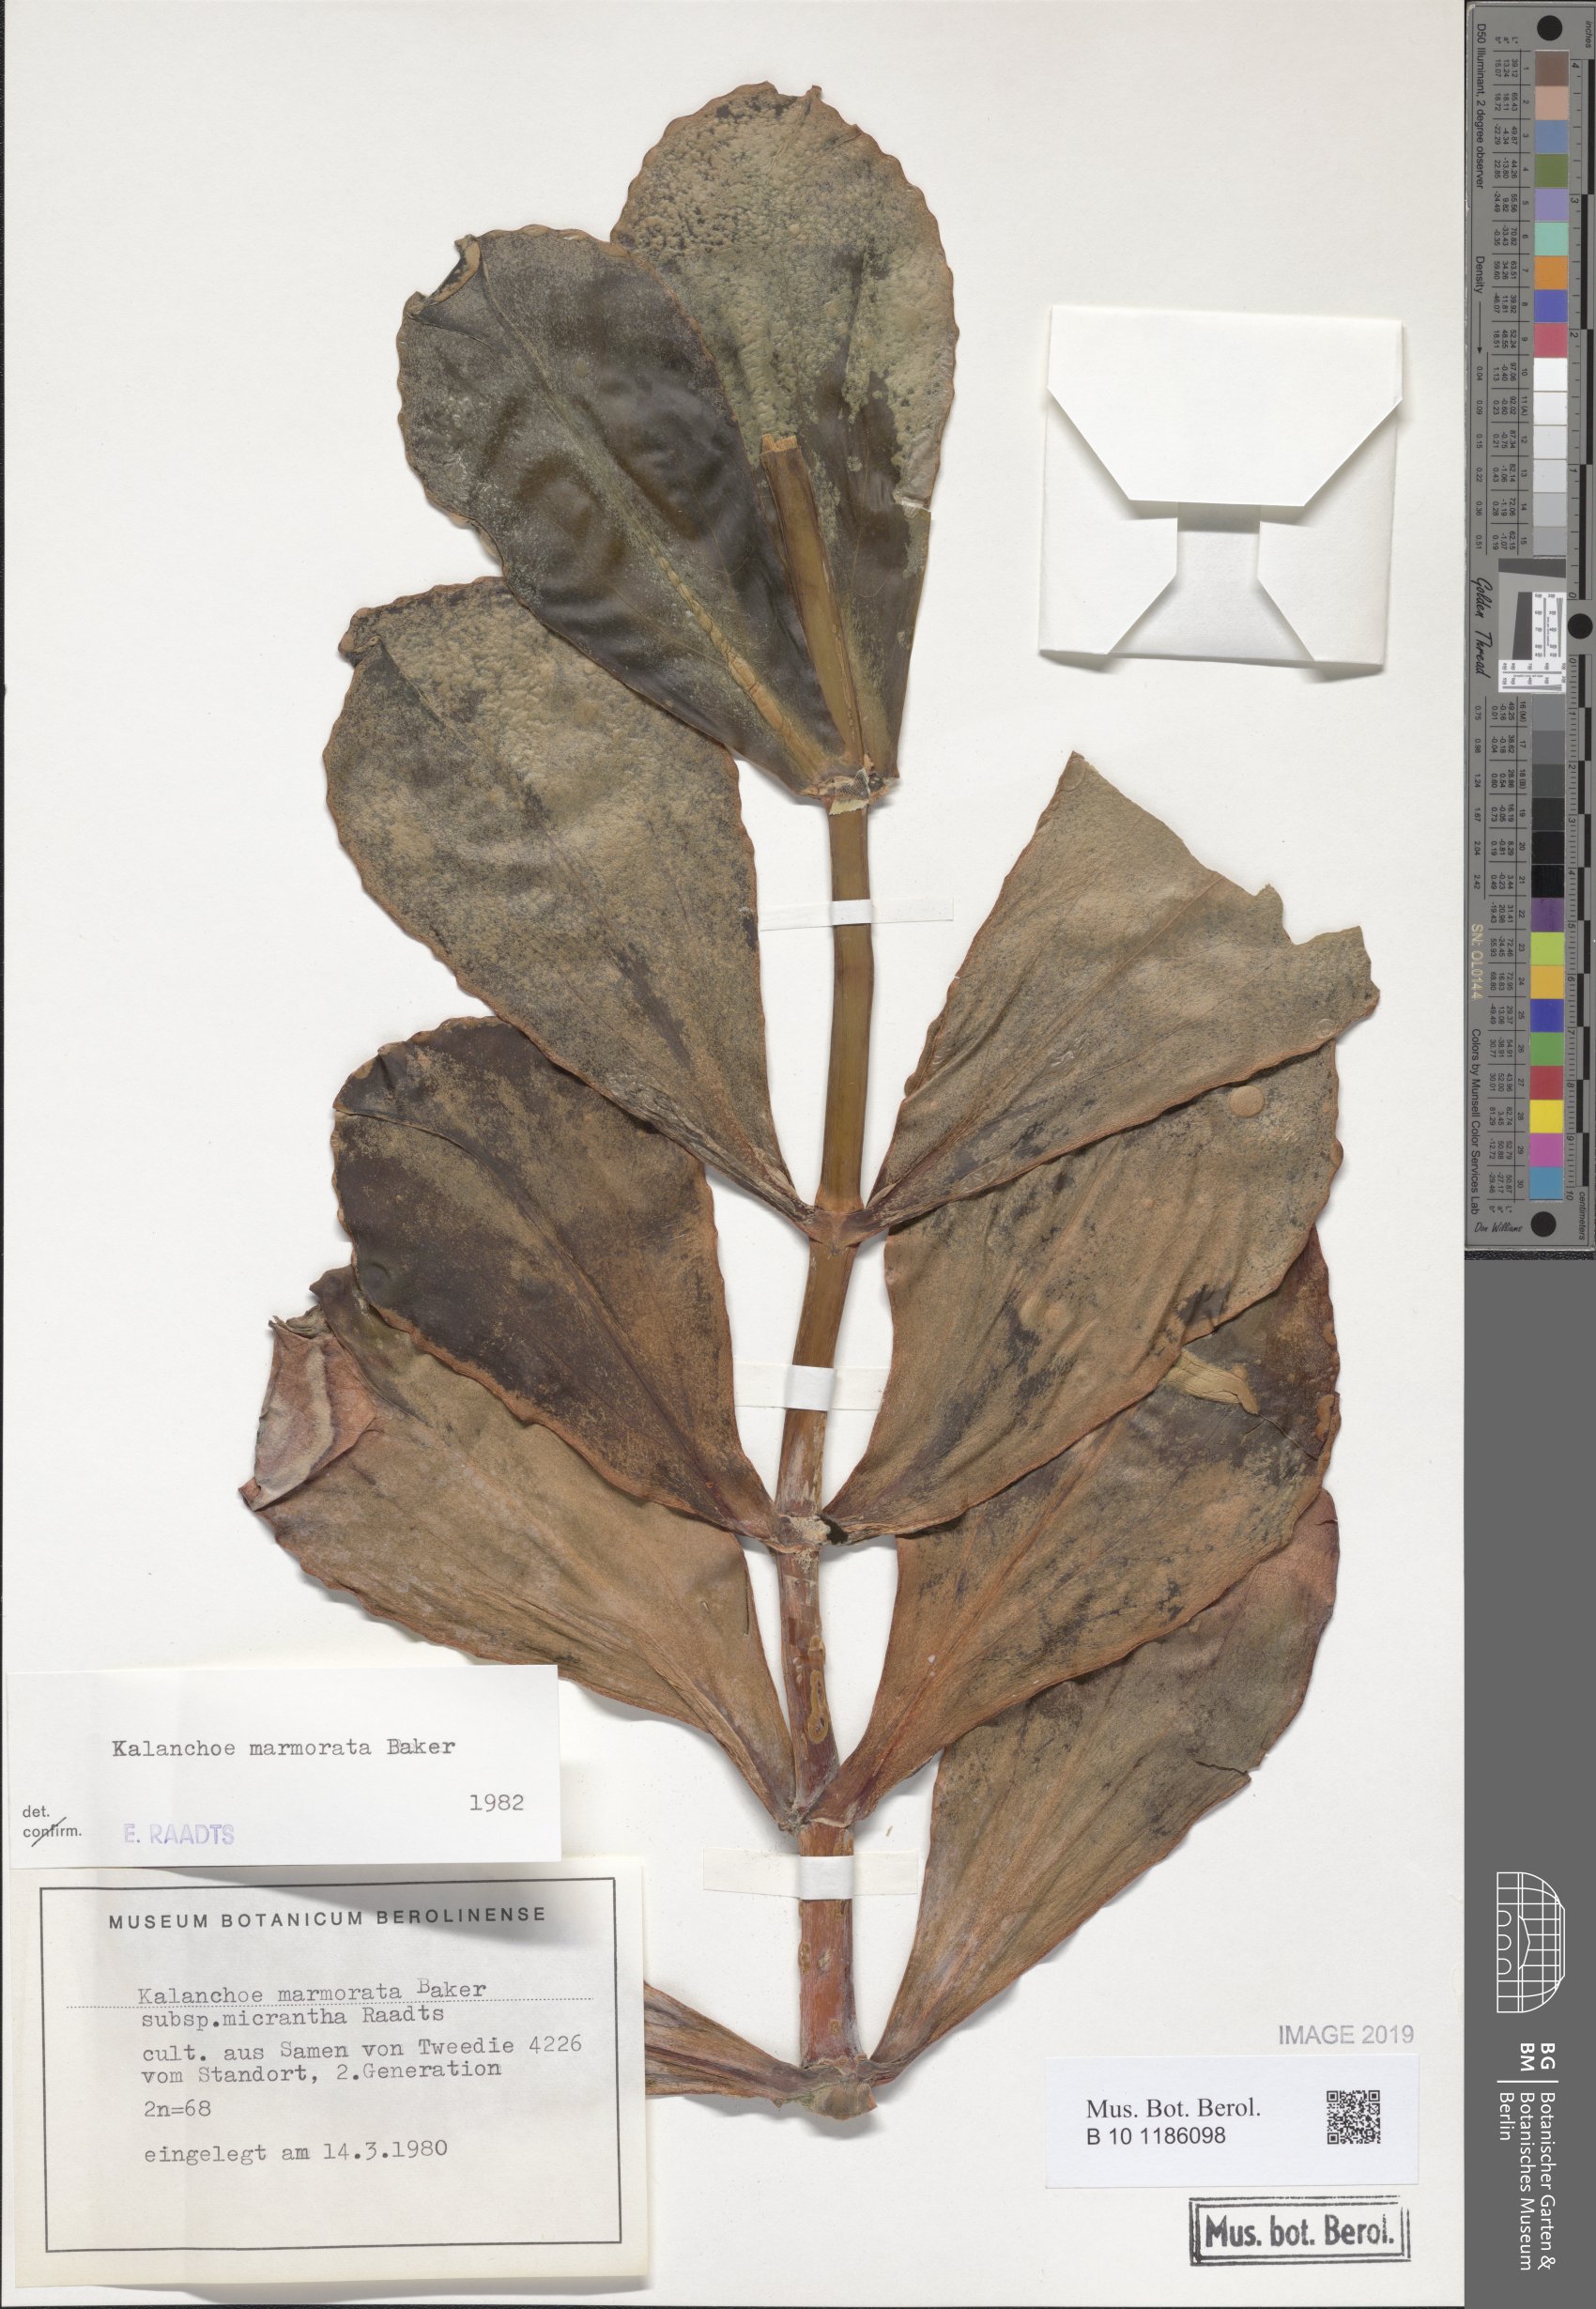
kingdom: Plantae
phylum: Tracheophyta
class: Magnoliopsida
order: Saxifragales
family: Crassulaceae
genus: Kalanchoe
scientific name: Kalanchoe marmorata
